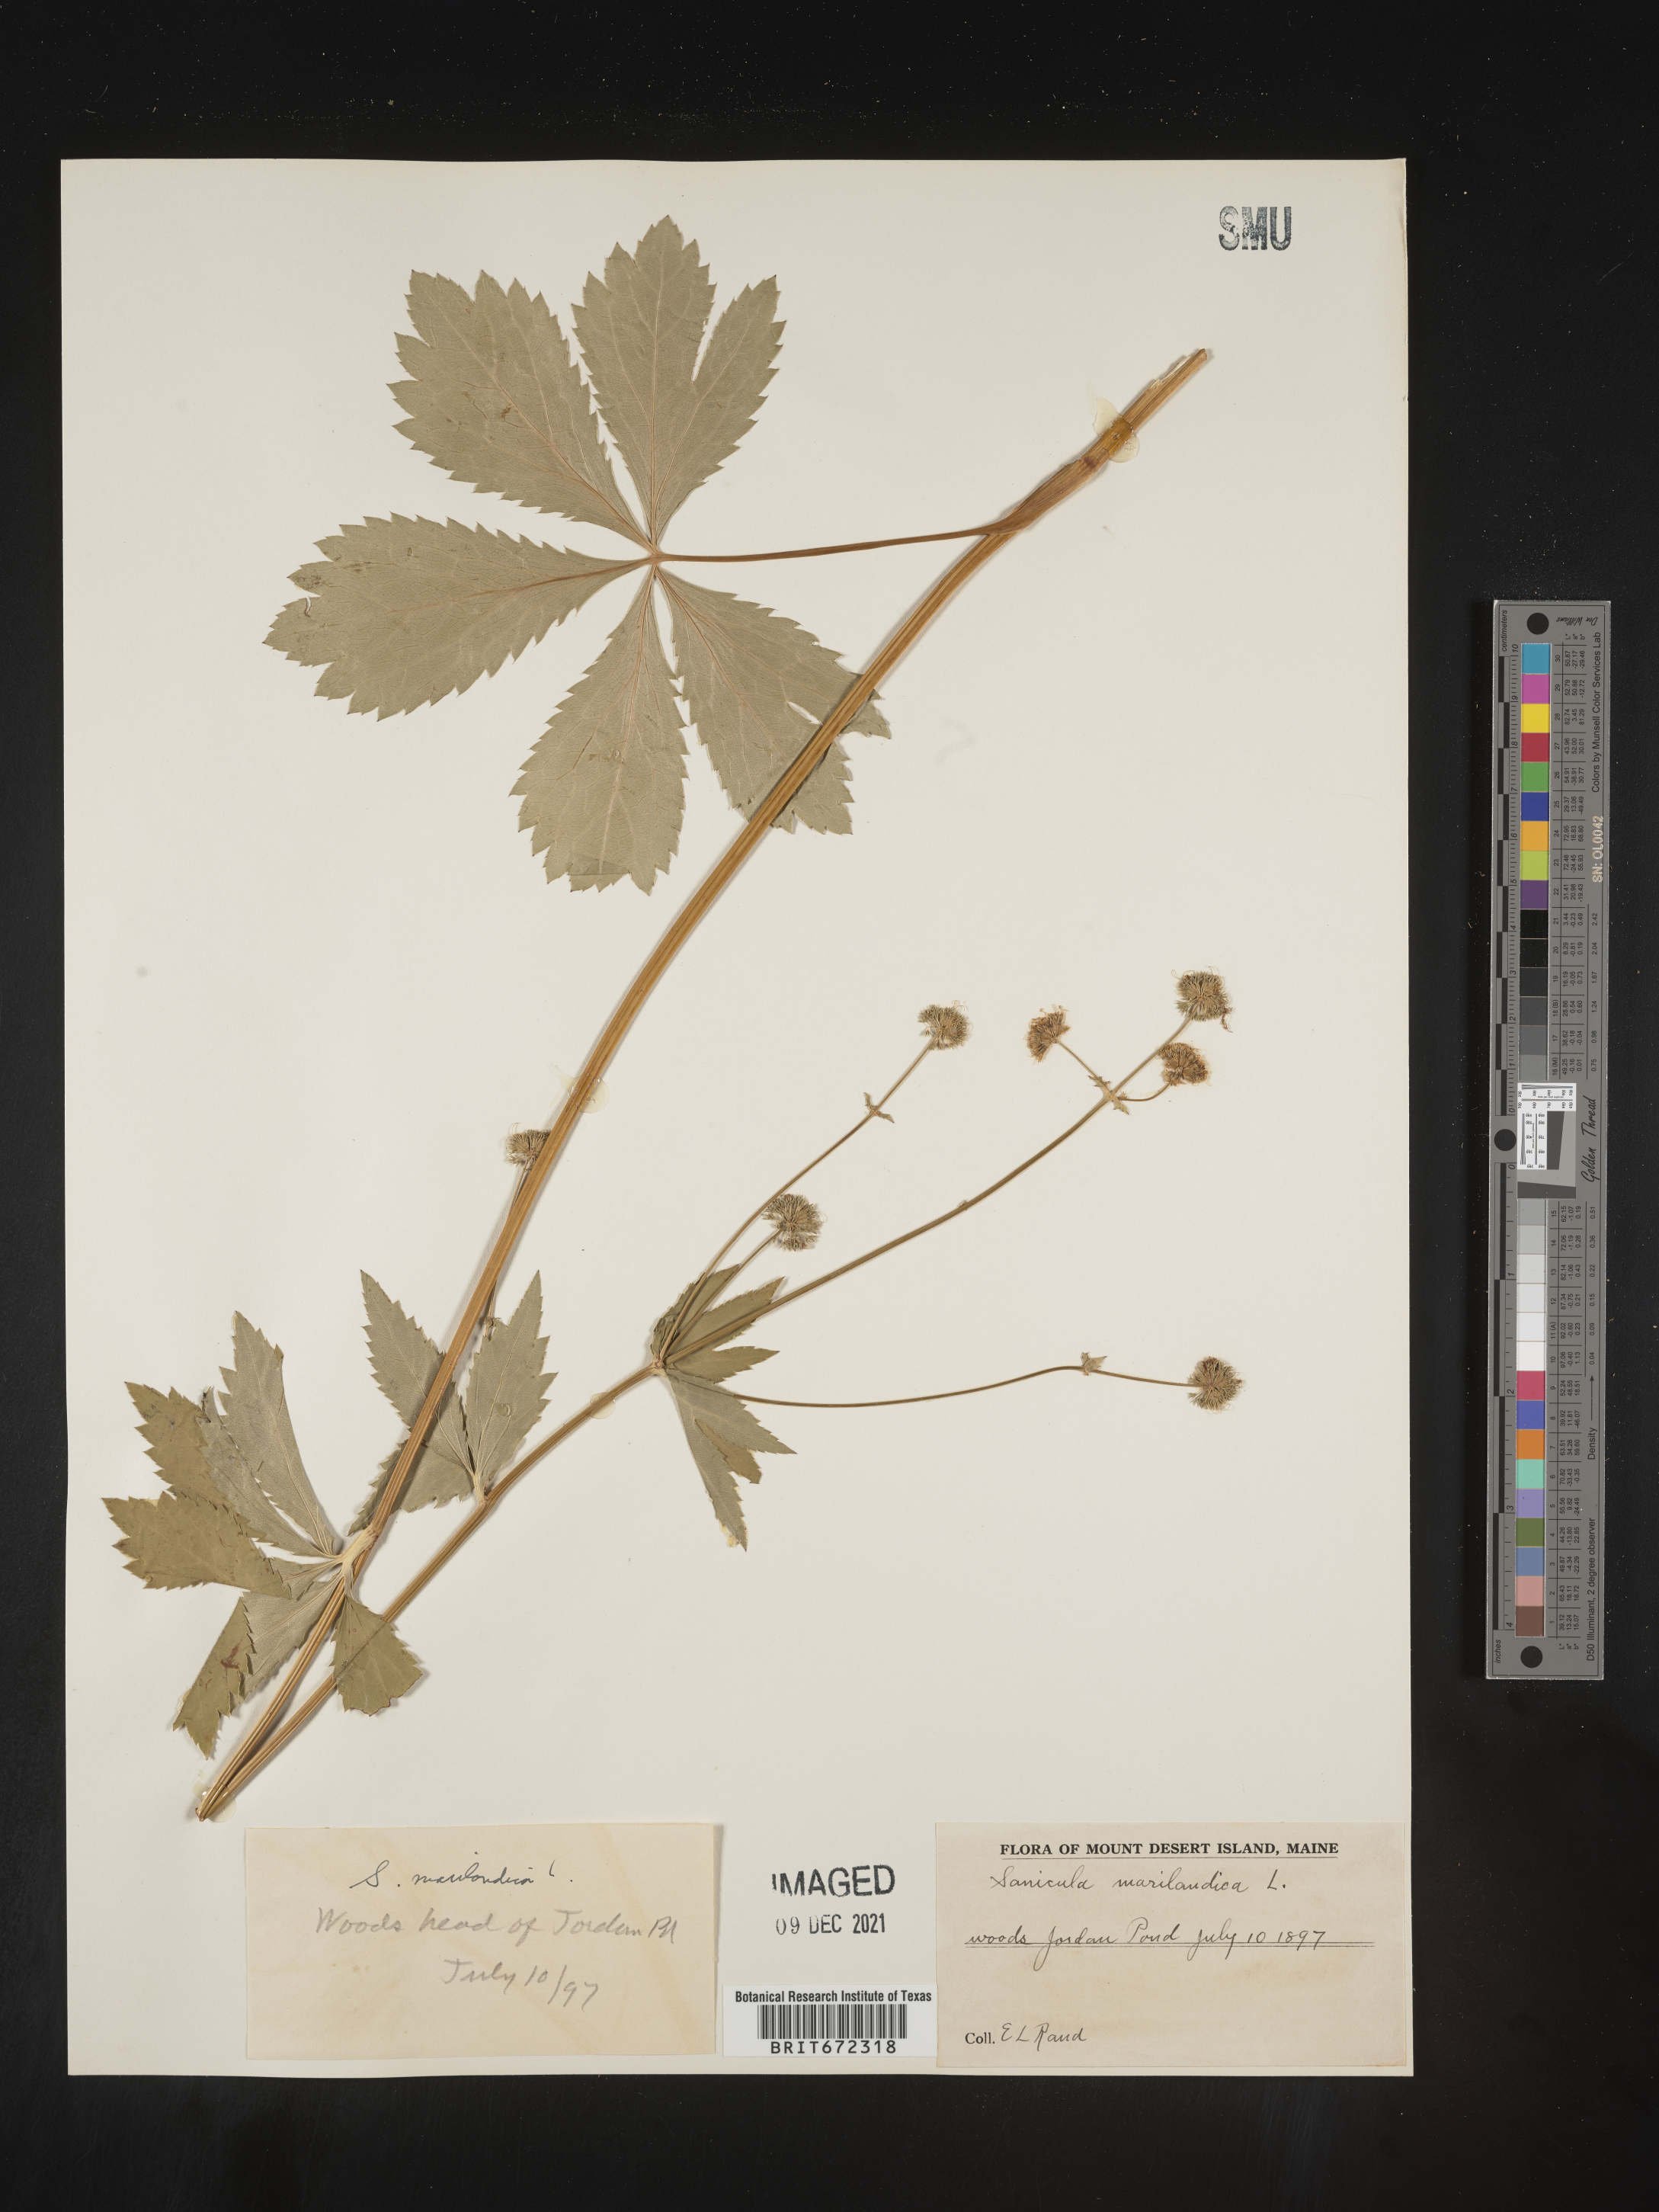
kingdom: Plantae
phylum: Tracheophyta
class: Magnoliopsida
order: Apiales
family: Apiaceae
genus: Sanicula
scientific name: Sanicula marilandica
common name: Black snakeroot
